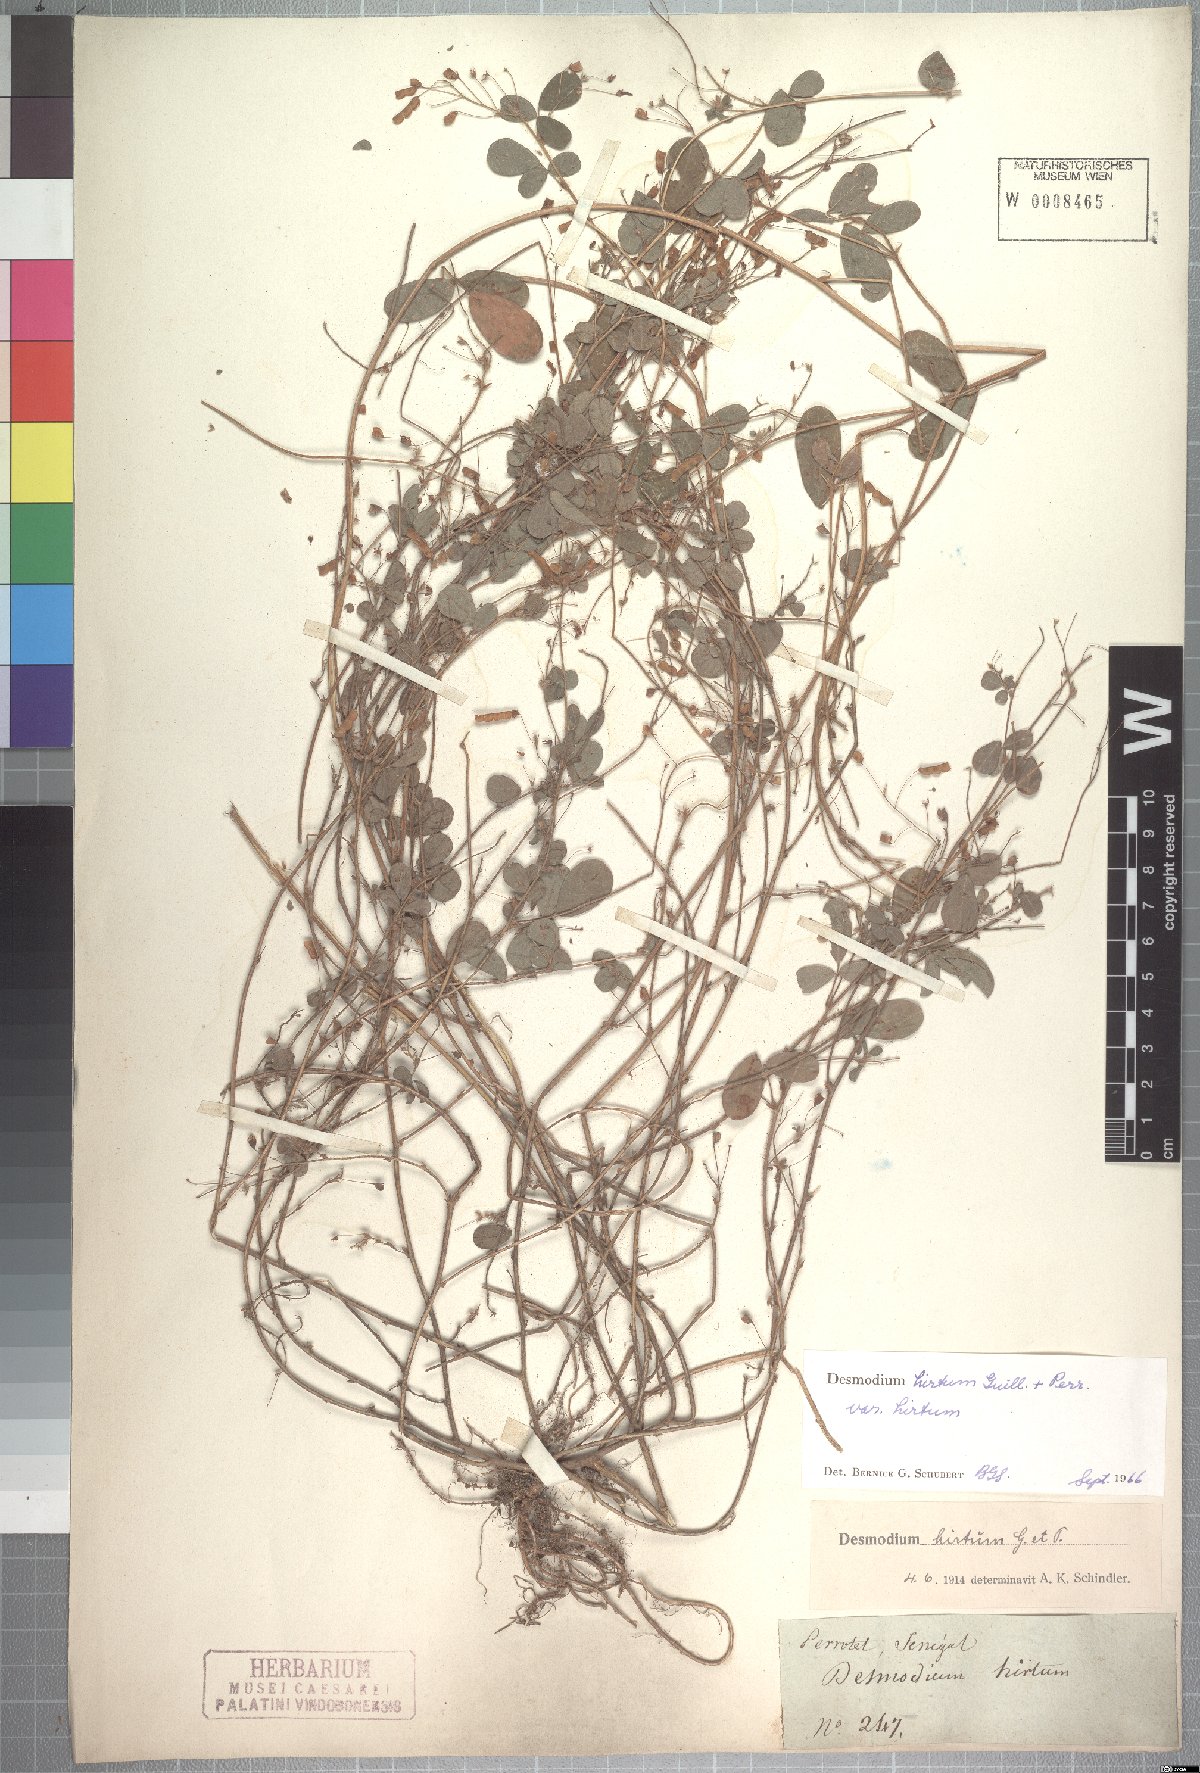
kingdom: Plantae
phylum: Tracheophyta
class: Magnoliopsida
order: Fabales
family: Fabaceae
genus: Grona
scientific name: Grona hirta
